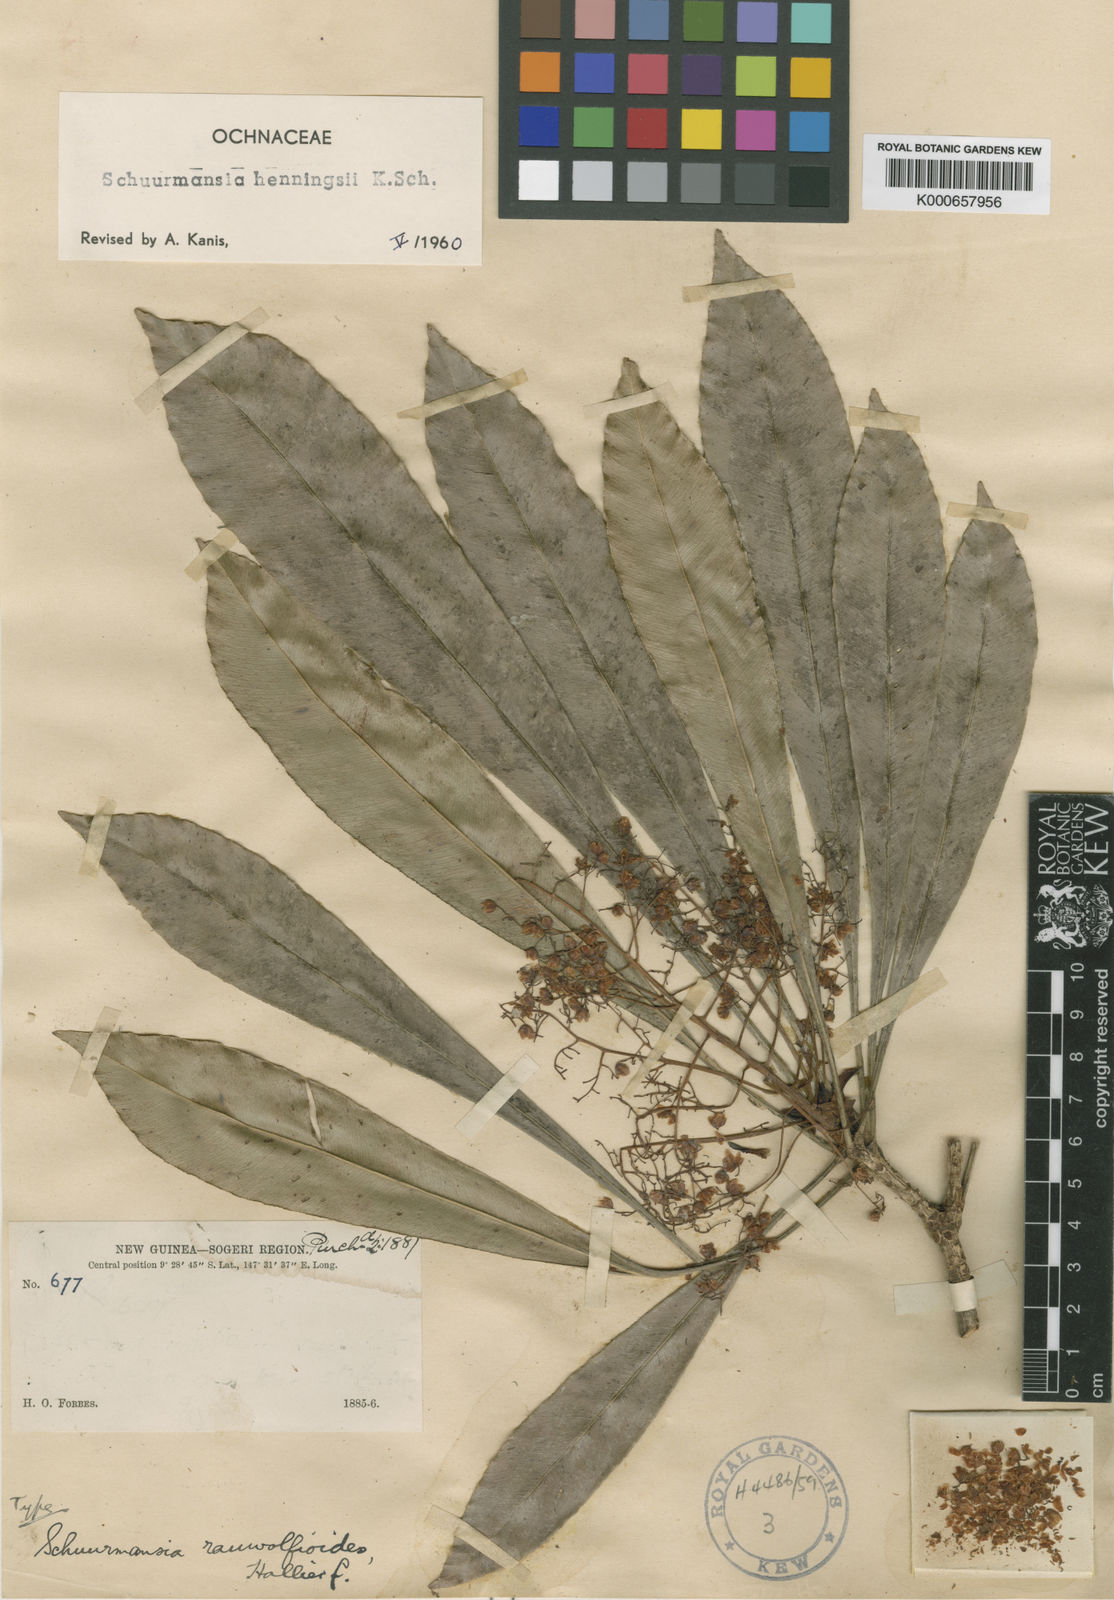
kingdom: Plantae
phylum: Tracheophyta
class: Magnoliopsida
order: Malpighiales
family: Ochnaceae
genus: Schuurmansia
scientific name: Schuurmansia henningsii
